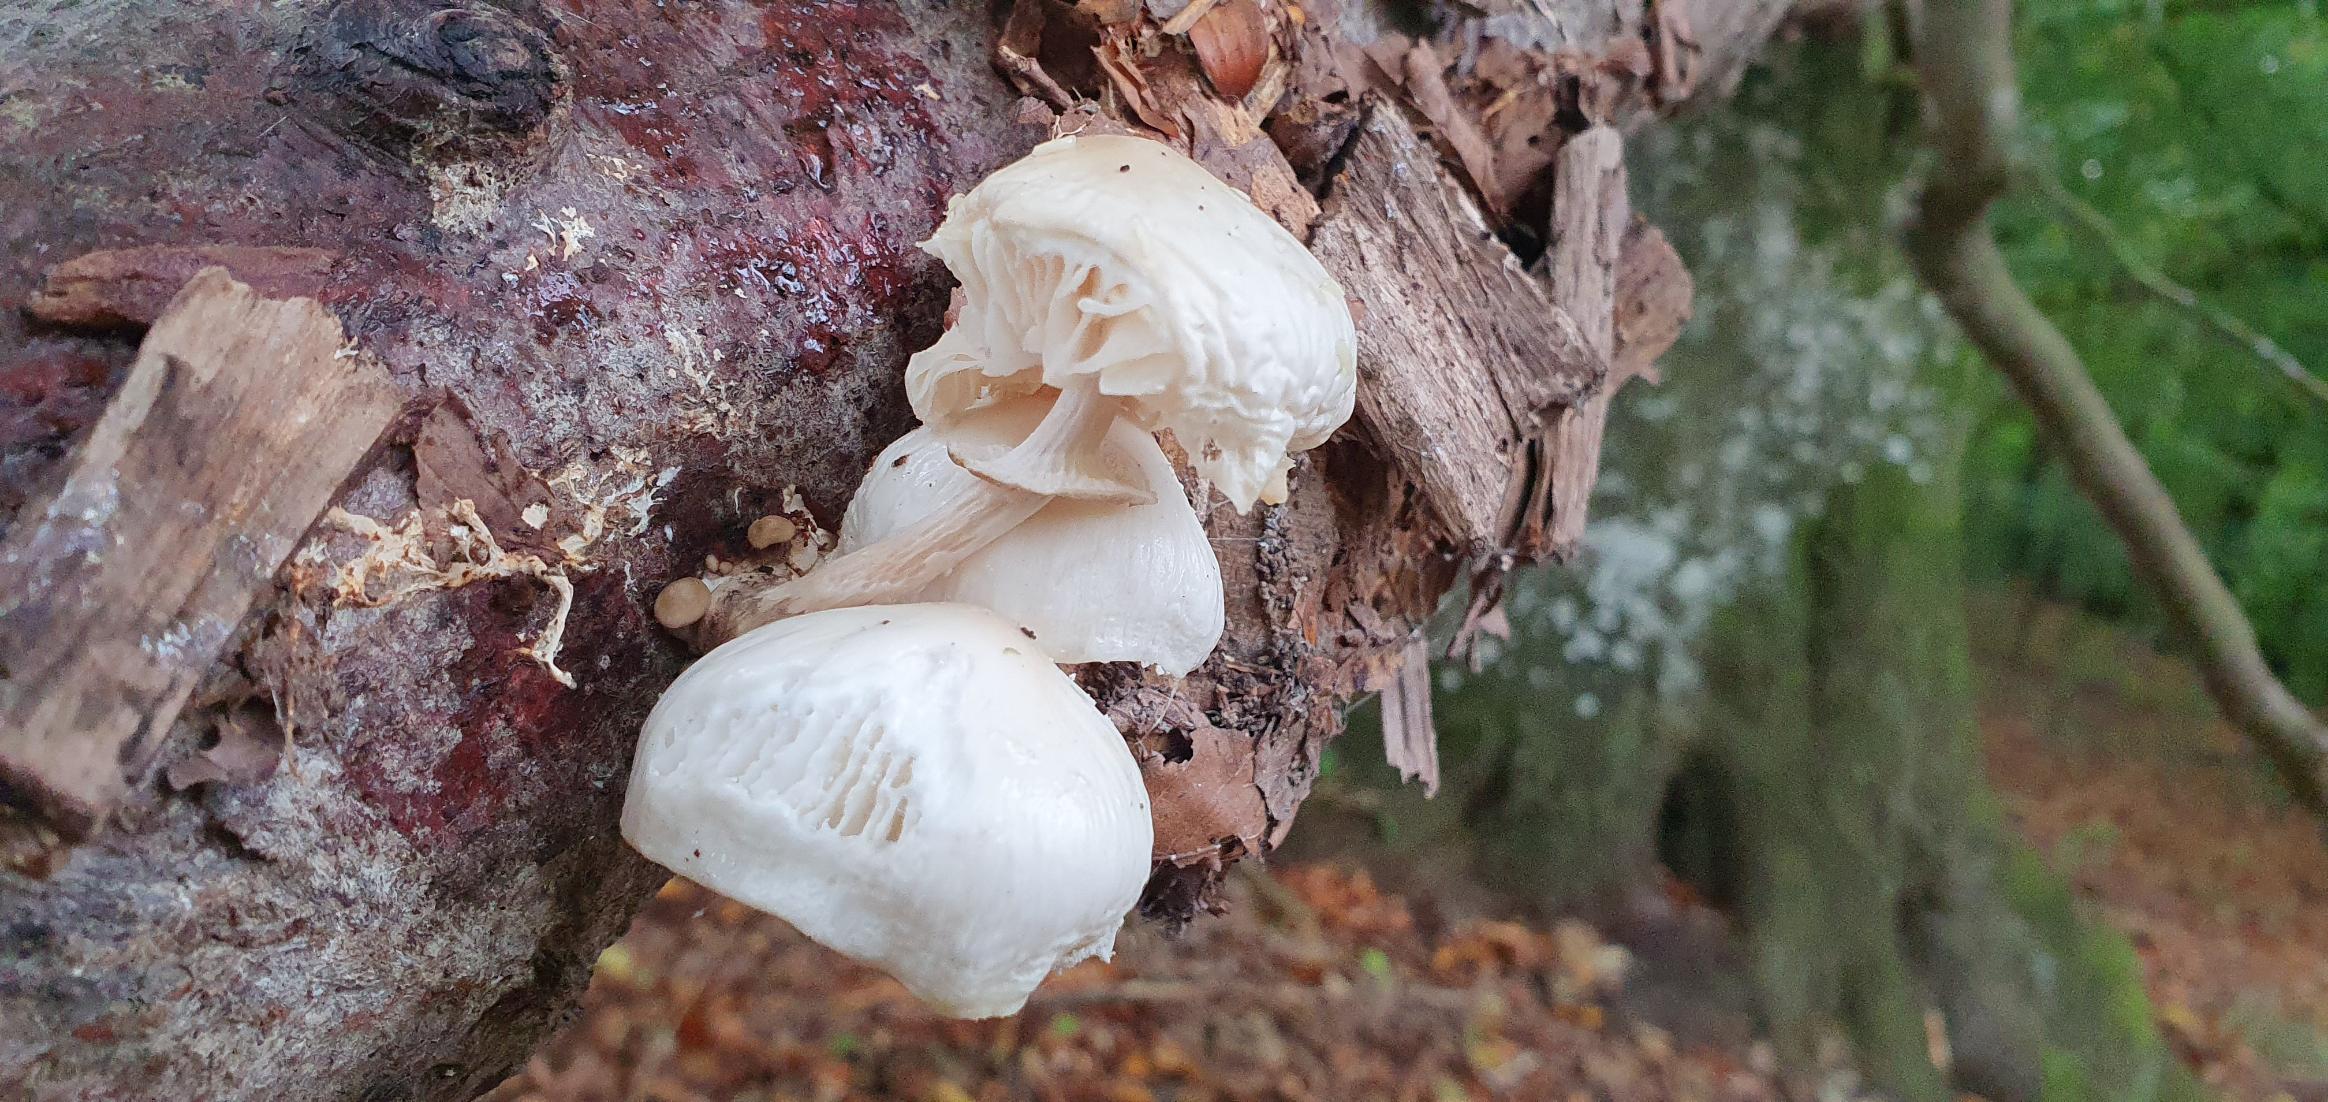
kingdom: Fungi
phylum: Basidiomycota
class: Agaricomycetes
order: Agaricales
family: Physalacriaceae
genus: Mucidula
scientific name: Mucidula mucida
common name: Porcelænshat
